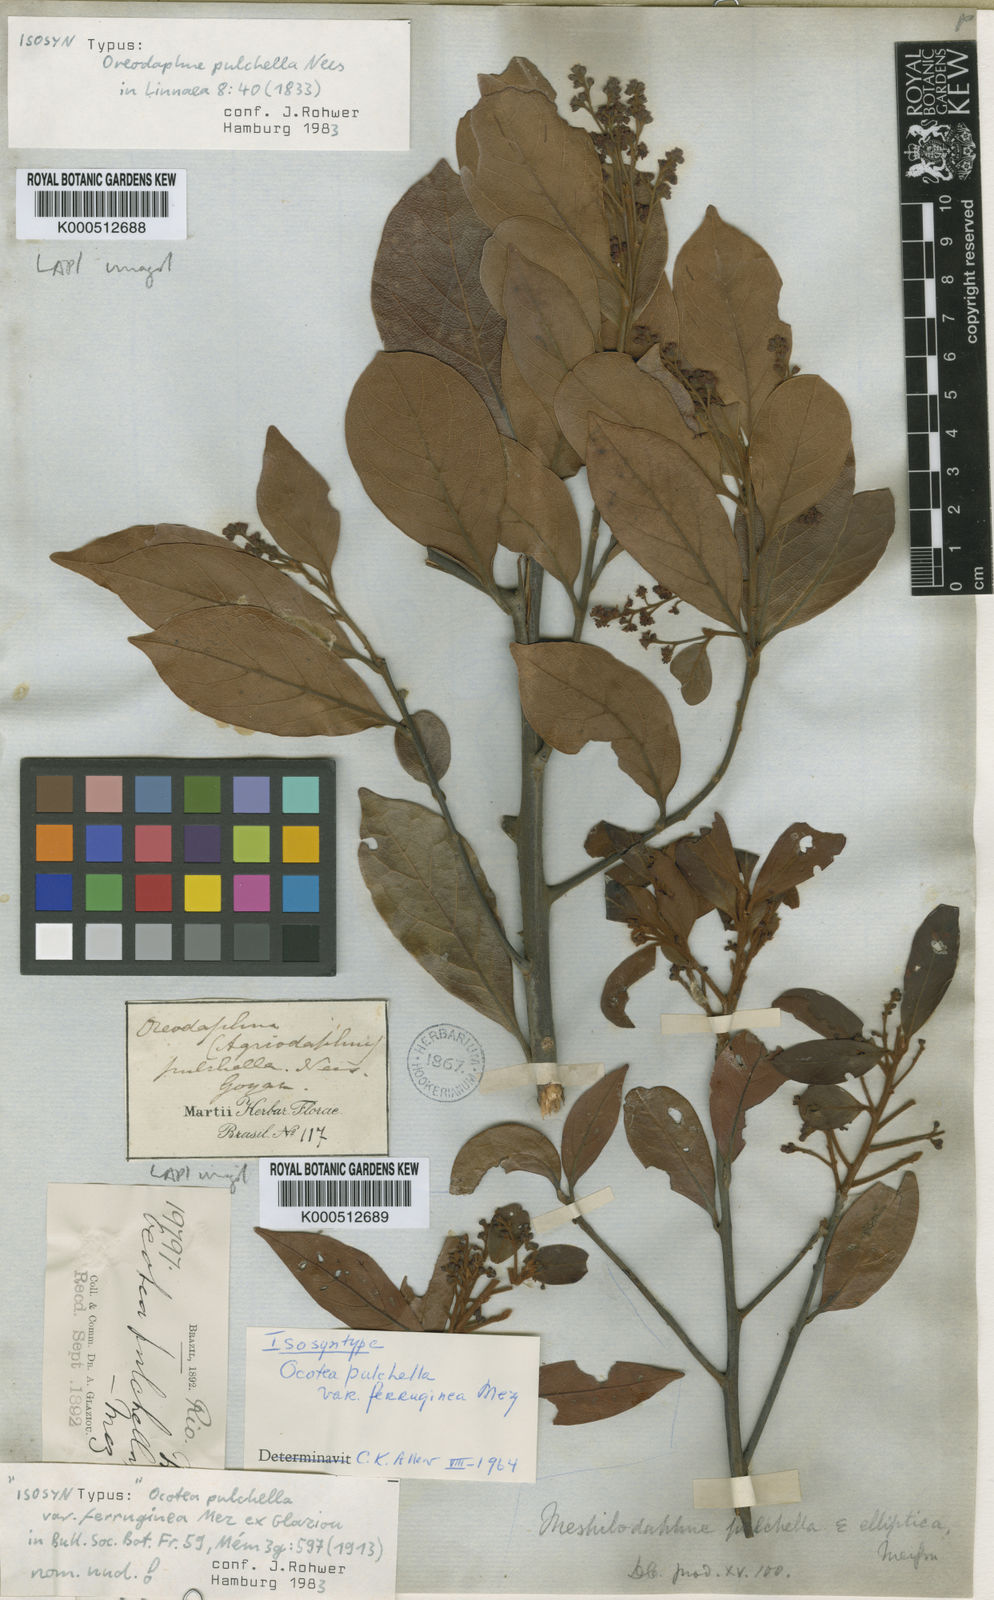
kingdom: Plantae
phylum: Tracheophyta
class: Magnoliopsida
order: Laurales
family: Lauraceae
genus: Mespilodaphne
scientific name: Mespilodaphne pulchella
